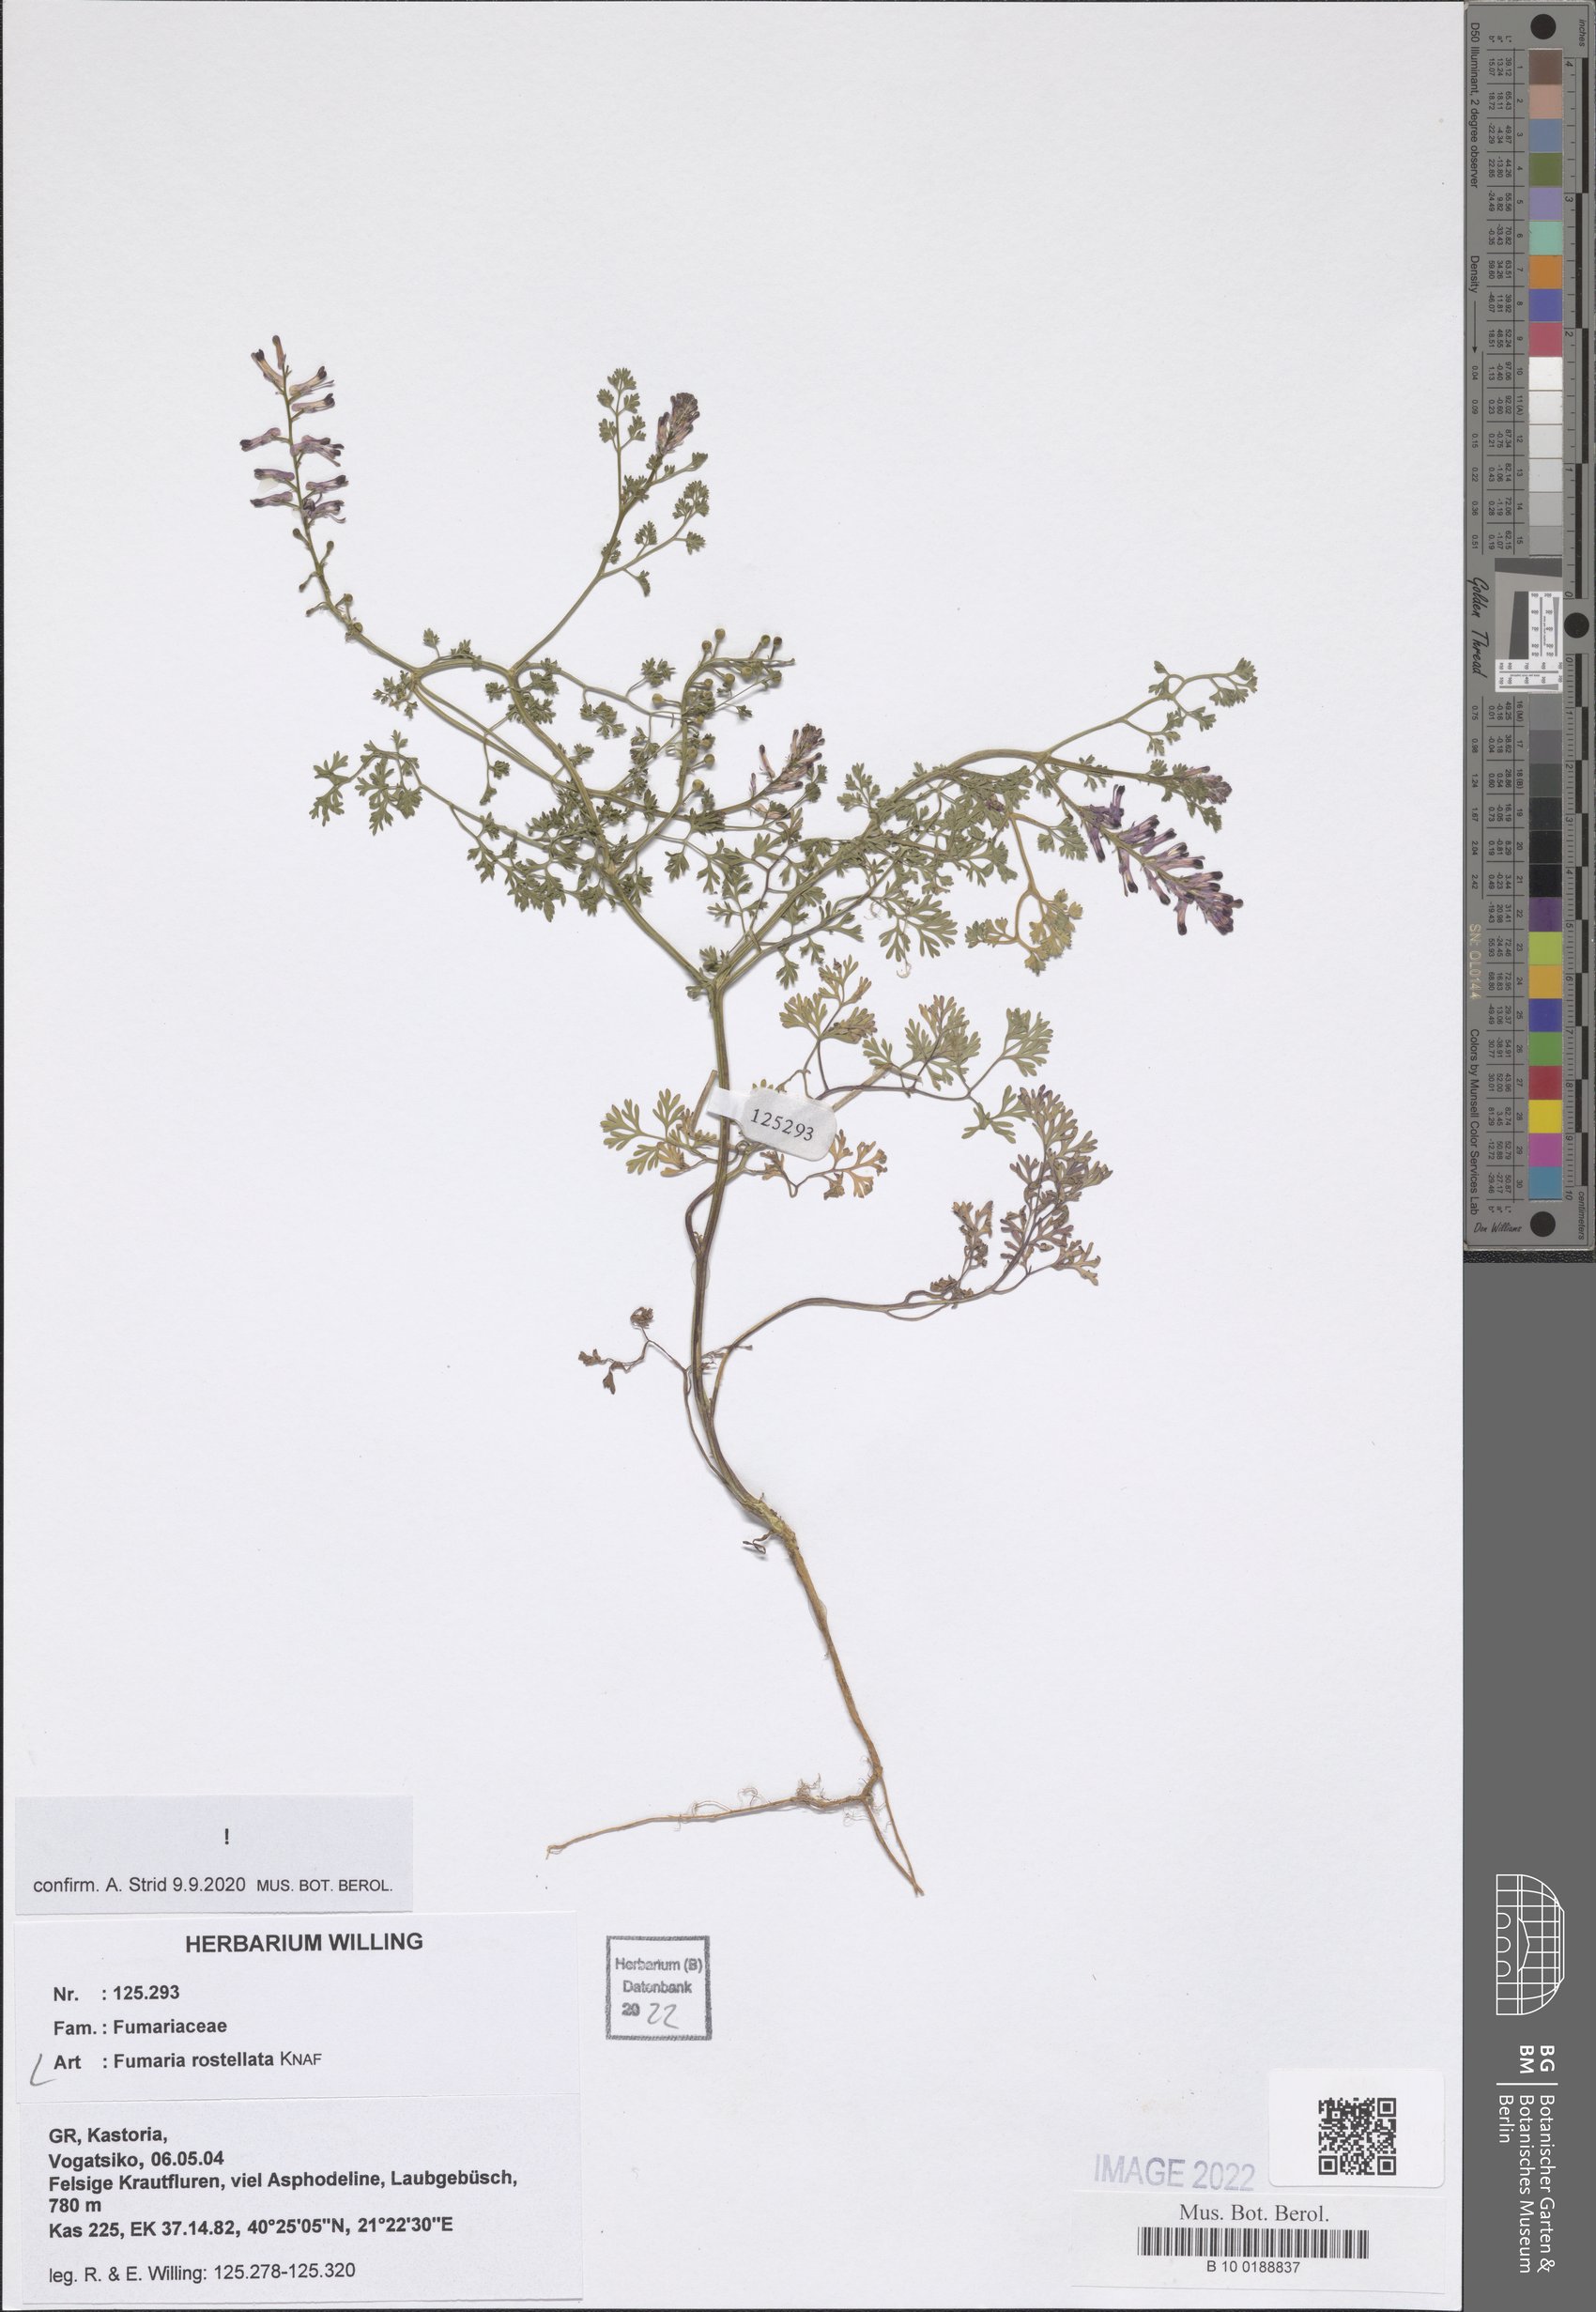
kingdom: Plantae
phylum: Tracheophyta
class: Magnoliopsida
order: Ranunculales
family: Papaveraceae
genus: Fumaria
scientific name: Fumaria rostellata
